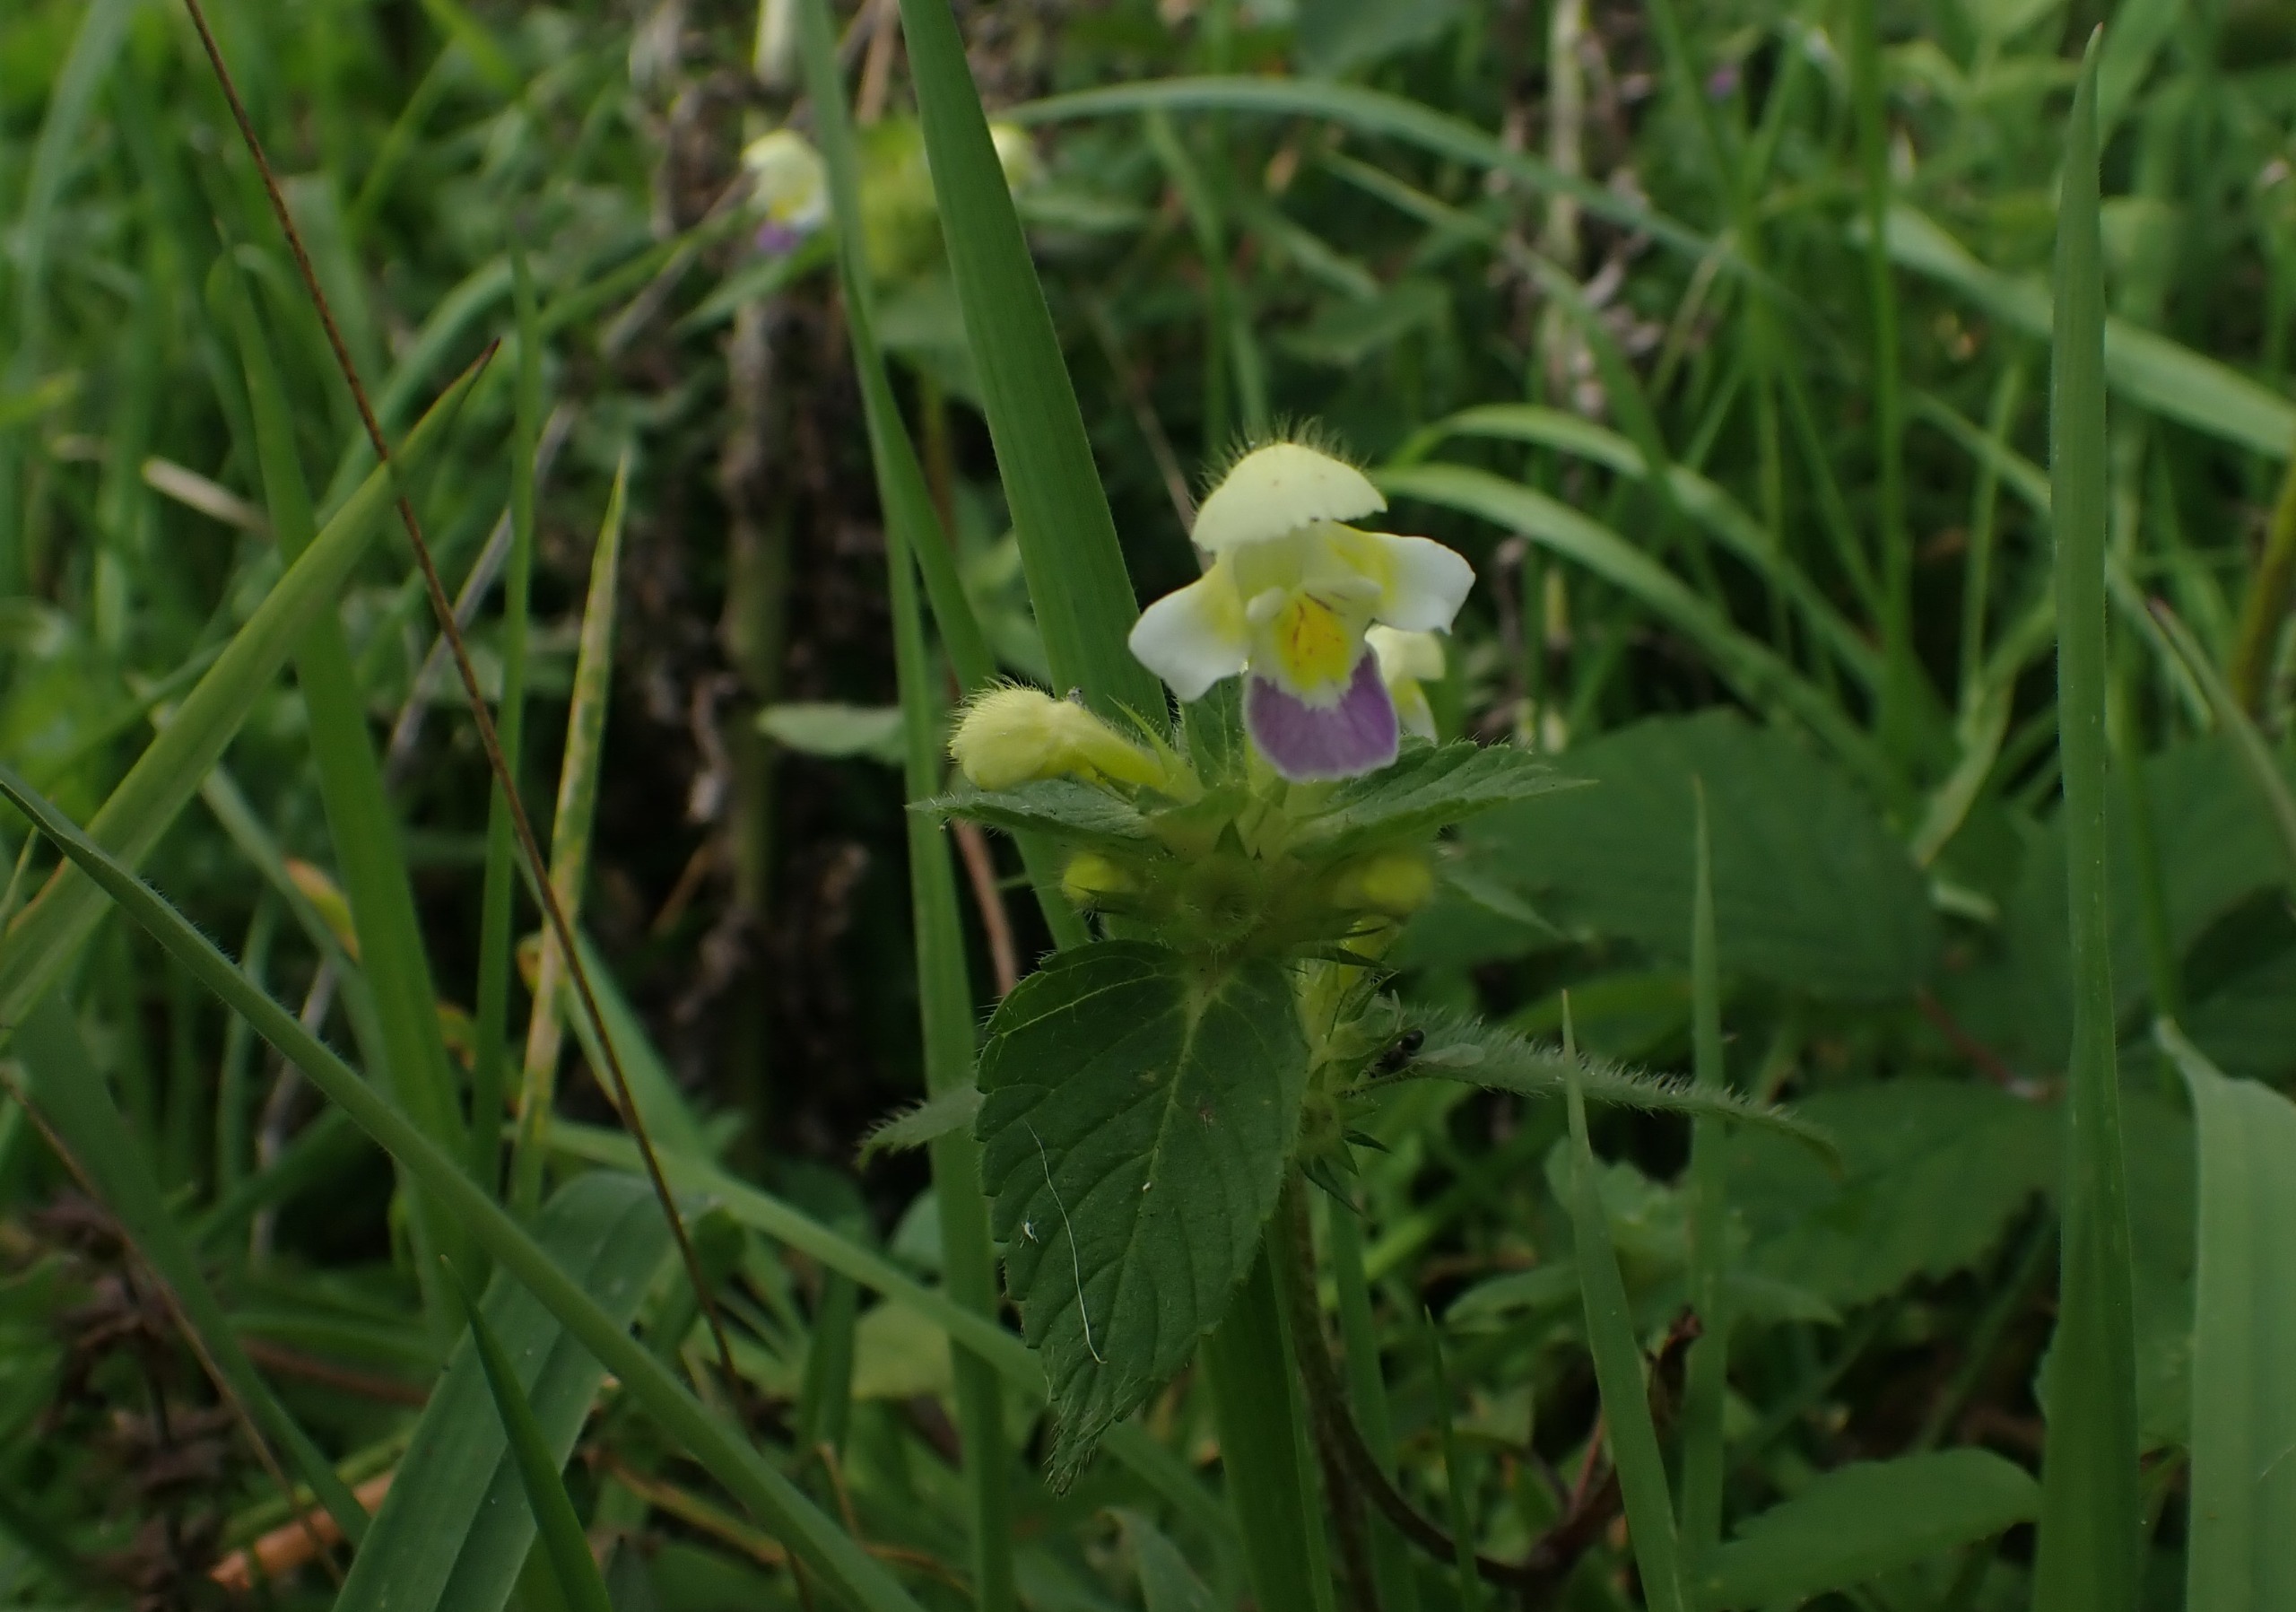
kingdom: Plantae
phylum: Tracheophyta
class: Magnoliopsida
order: Lamiales
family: Lamiaceae
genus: Galeopsis
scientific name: Galeopsis speciosa
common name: Hamp-hanekro
